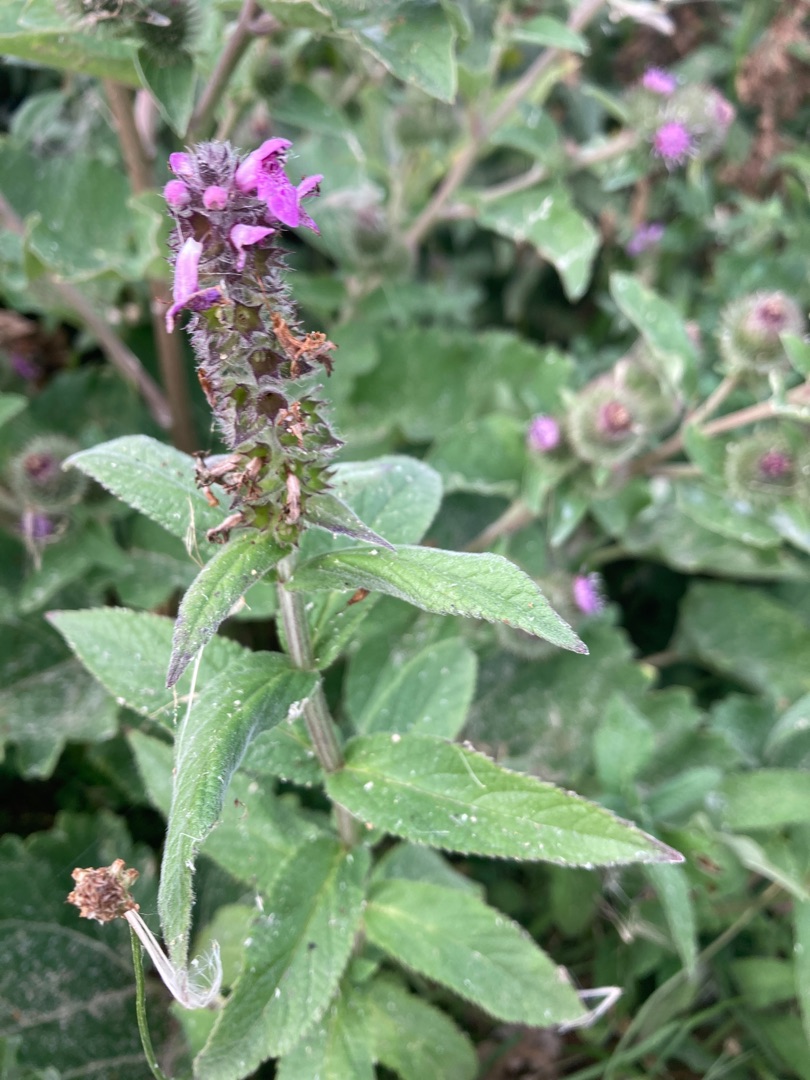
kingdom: Plantae
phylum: Tracheophyta
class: Magnoliopsida
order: Lamiales
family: Lamiaceae
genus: Stachys
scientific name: Stachys palustris
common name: Kær-galtetand
